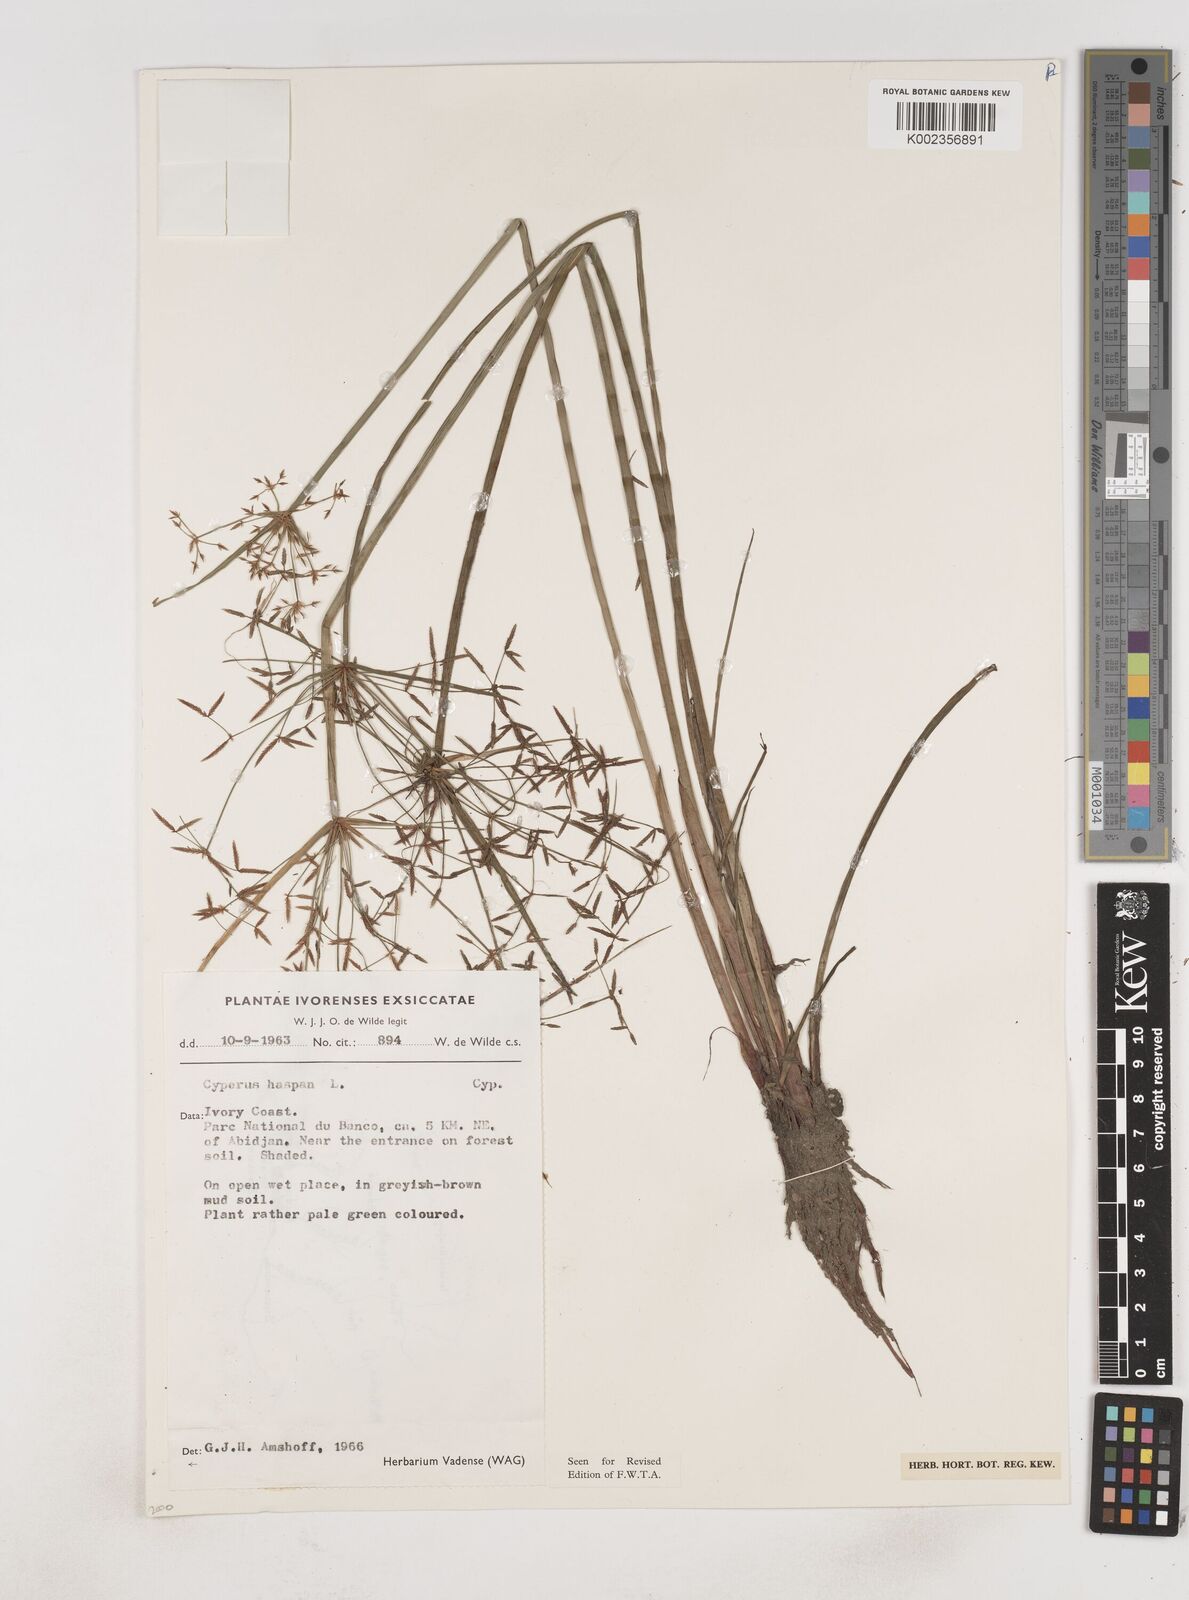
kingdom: Plantae
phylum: Tracheophyta
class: Liliopsida
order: Poales
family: Cyperaceae
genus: Cyperus
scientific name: Cyperus haspan
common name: Haspan flatsedge
